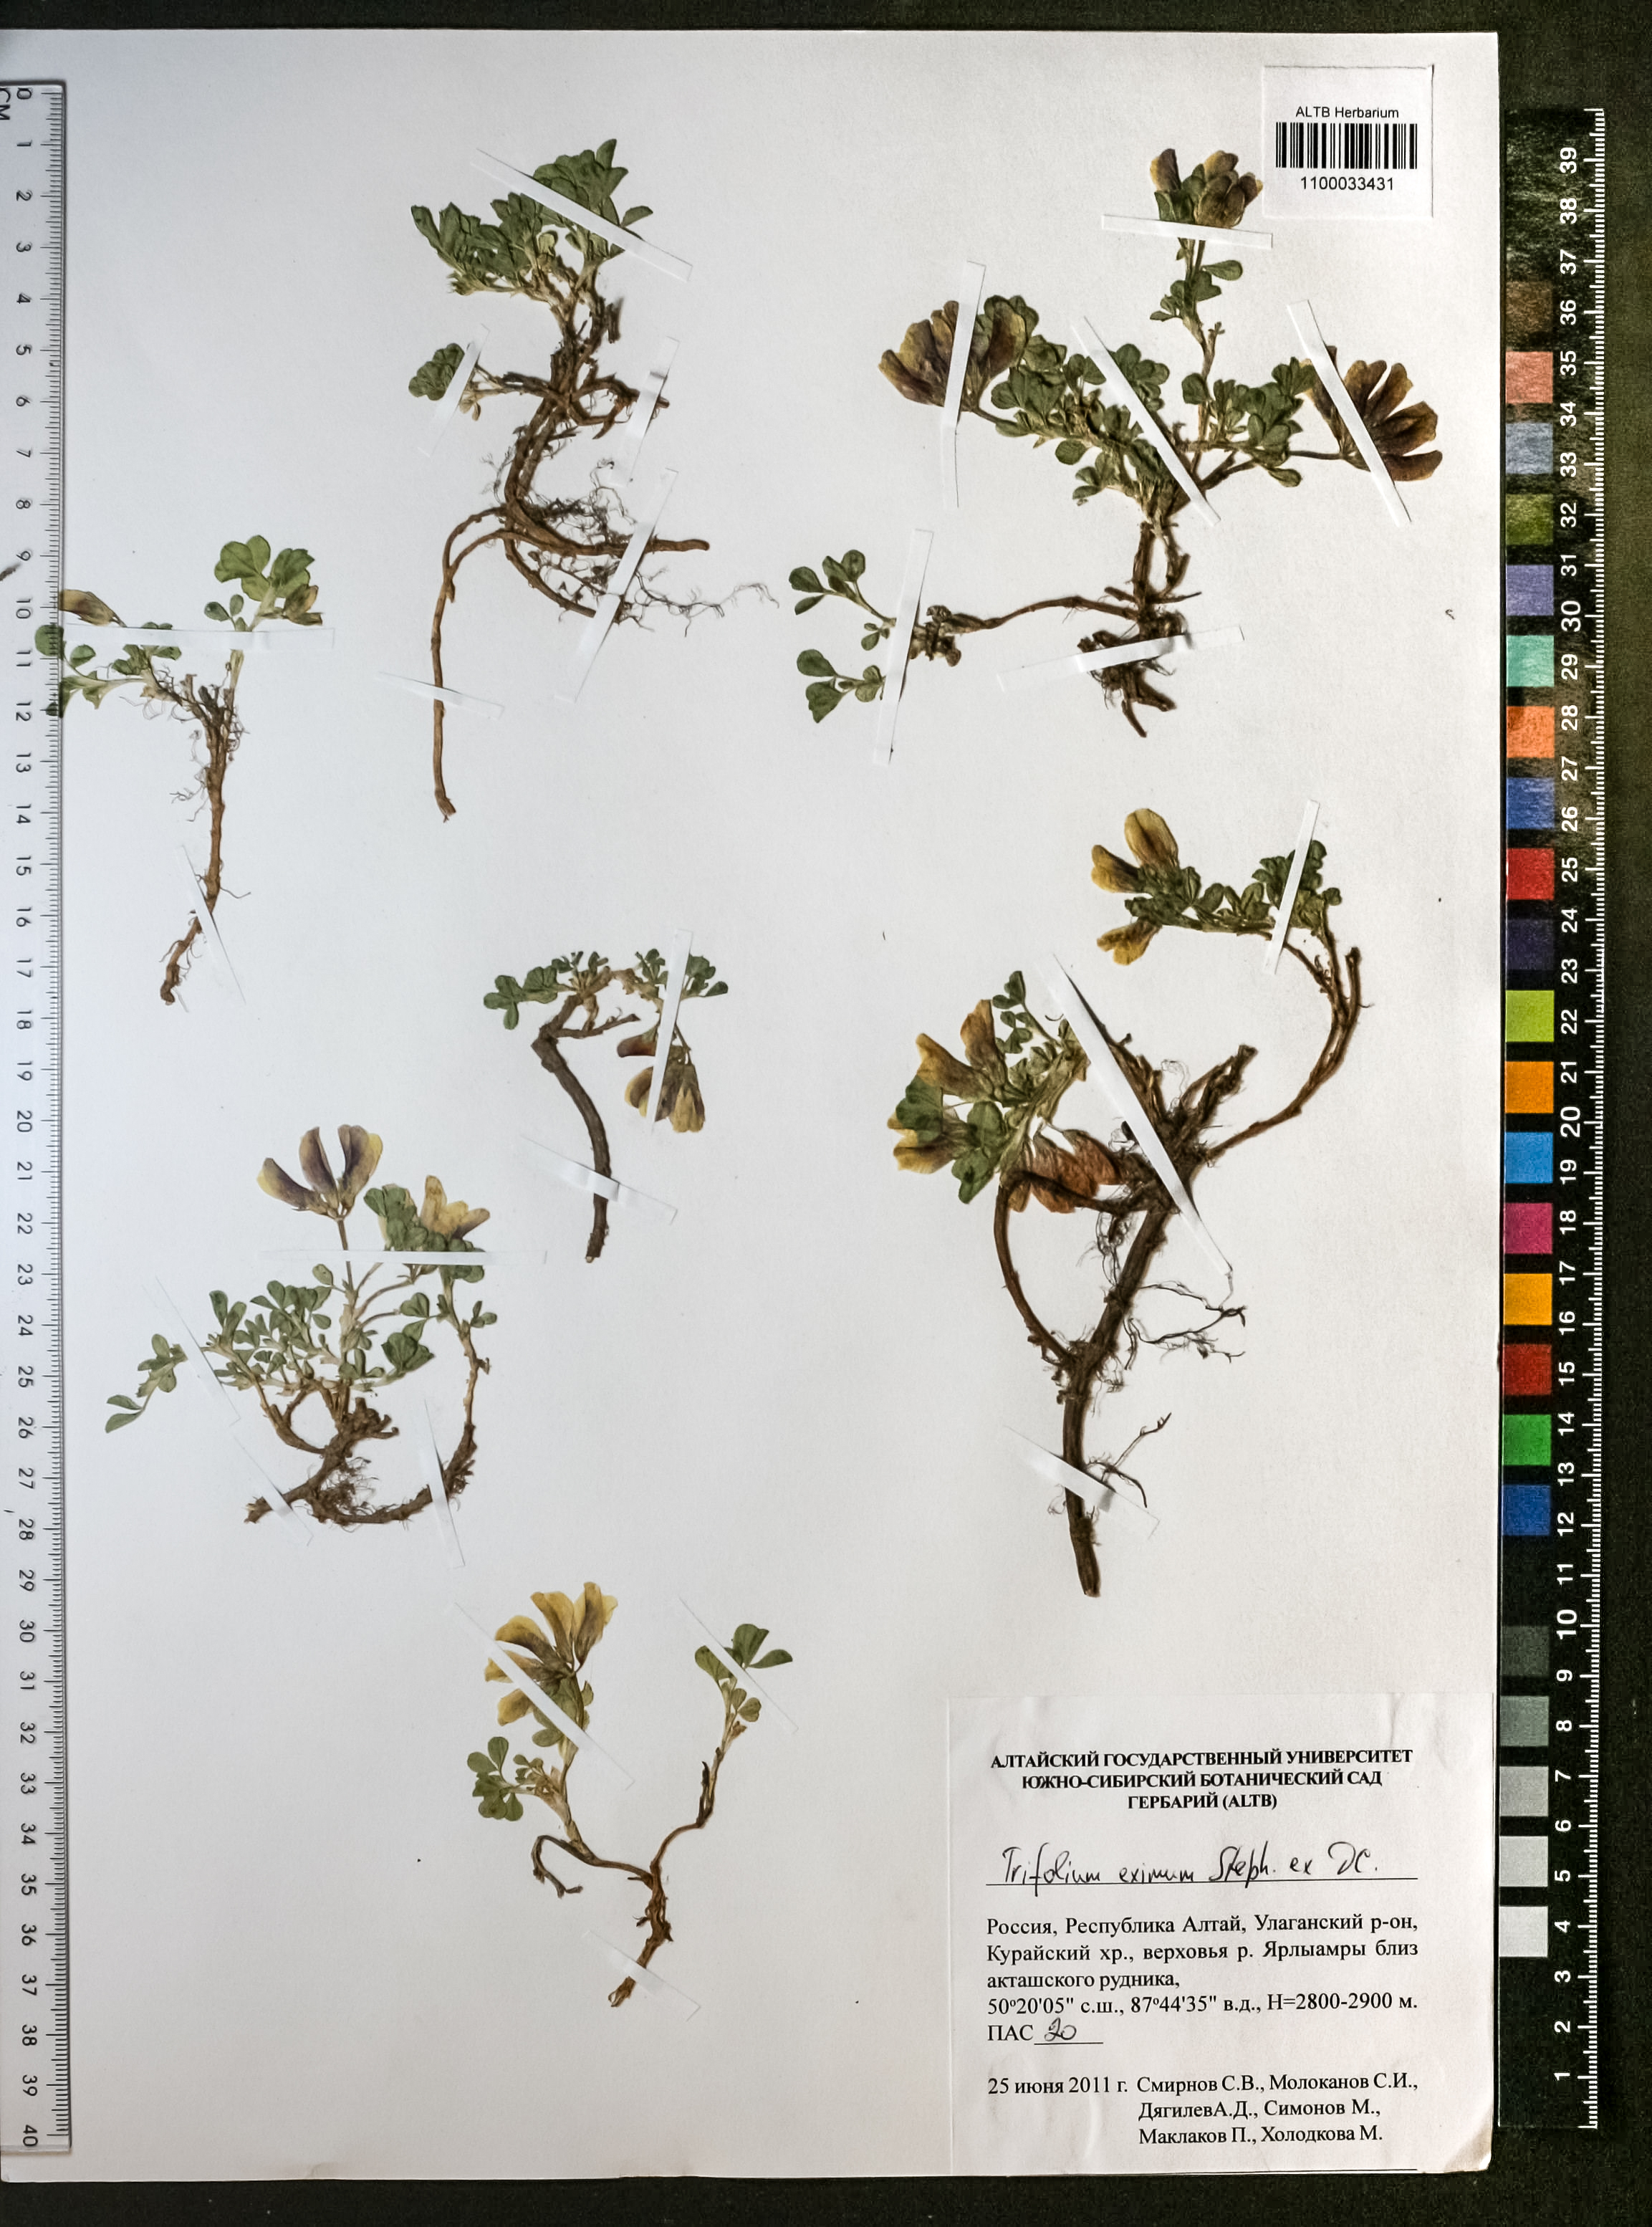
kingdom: Plantae
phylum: Tracheophyta
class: Magnoliopsida
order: Fabales
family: Fabaceae
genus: Trifolium
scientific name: Trifolium eximium
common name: Excellent clover
